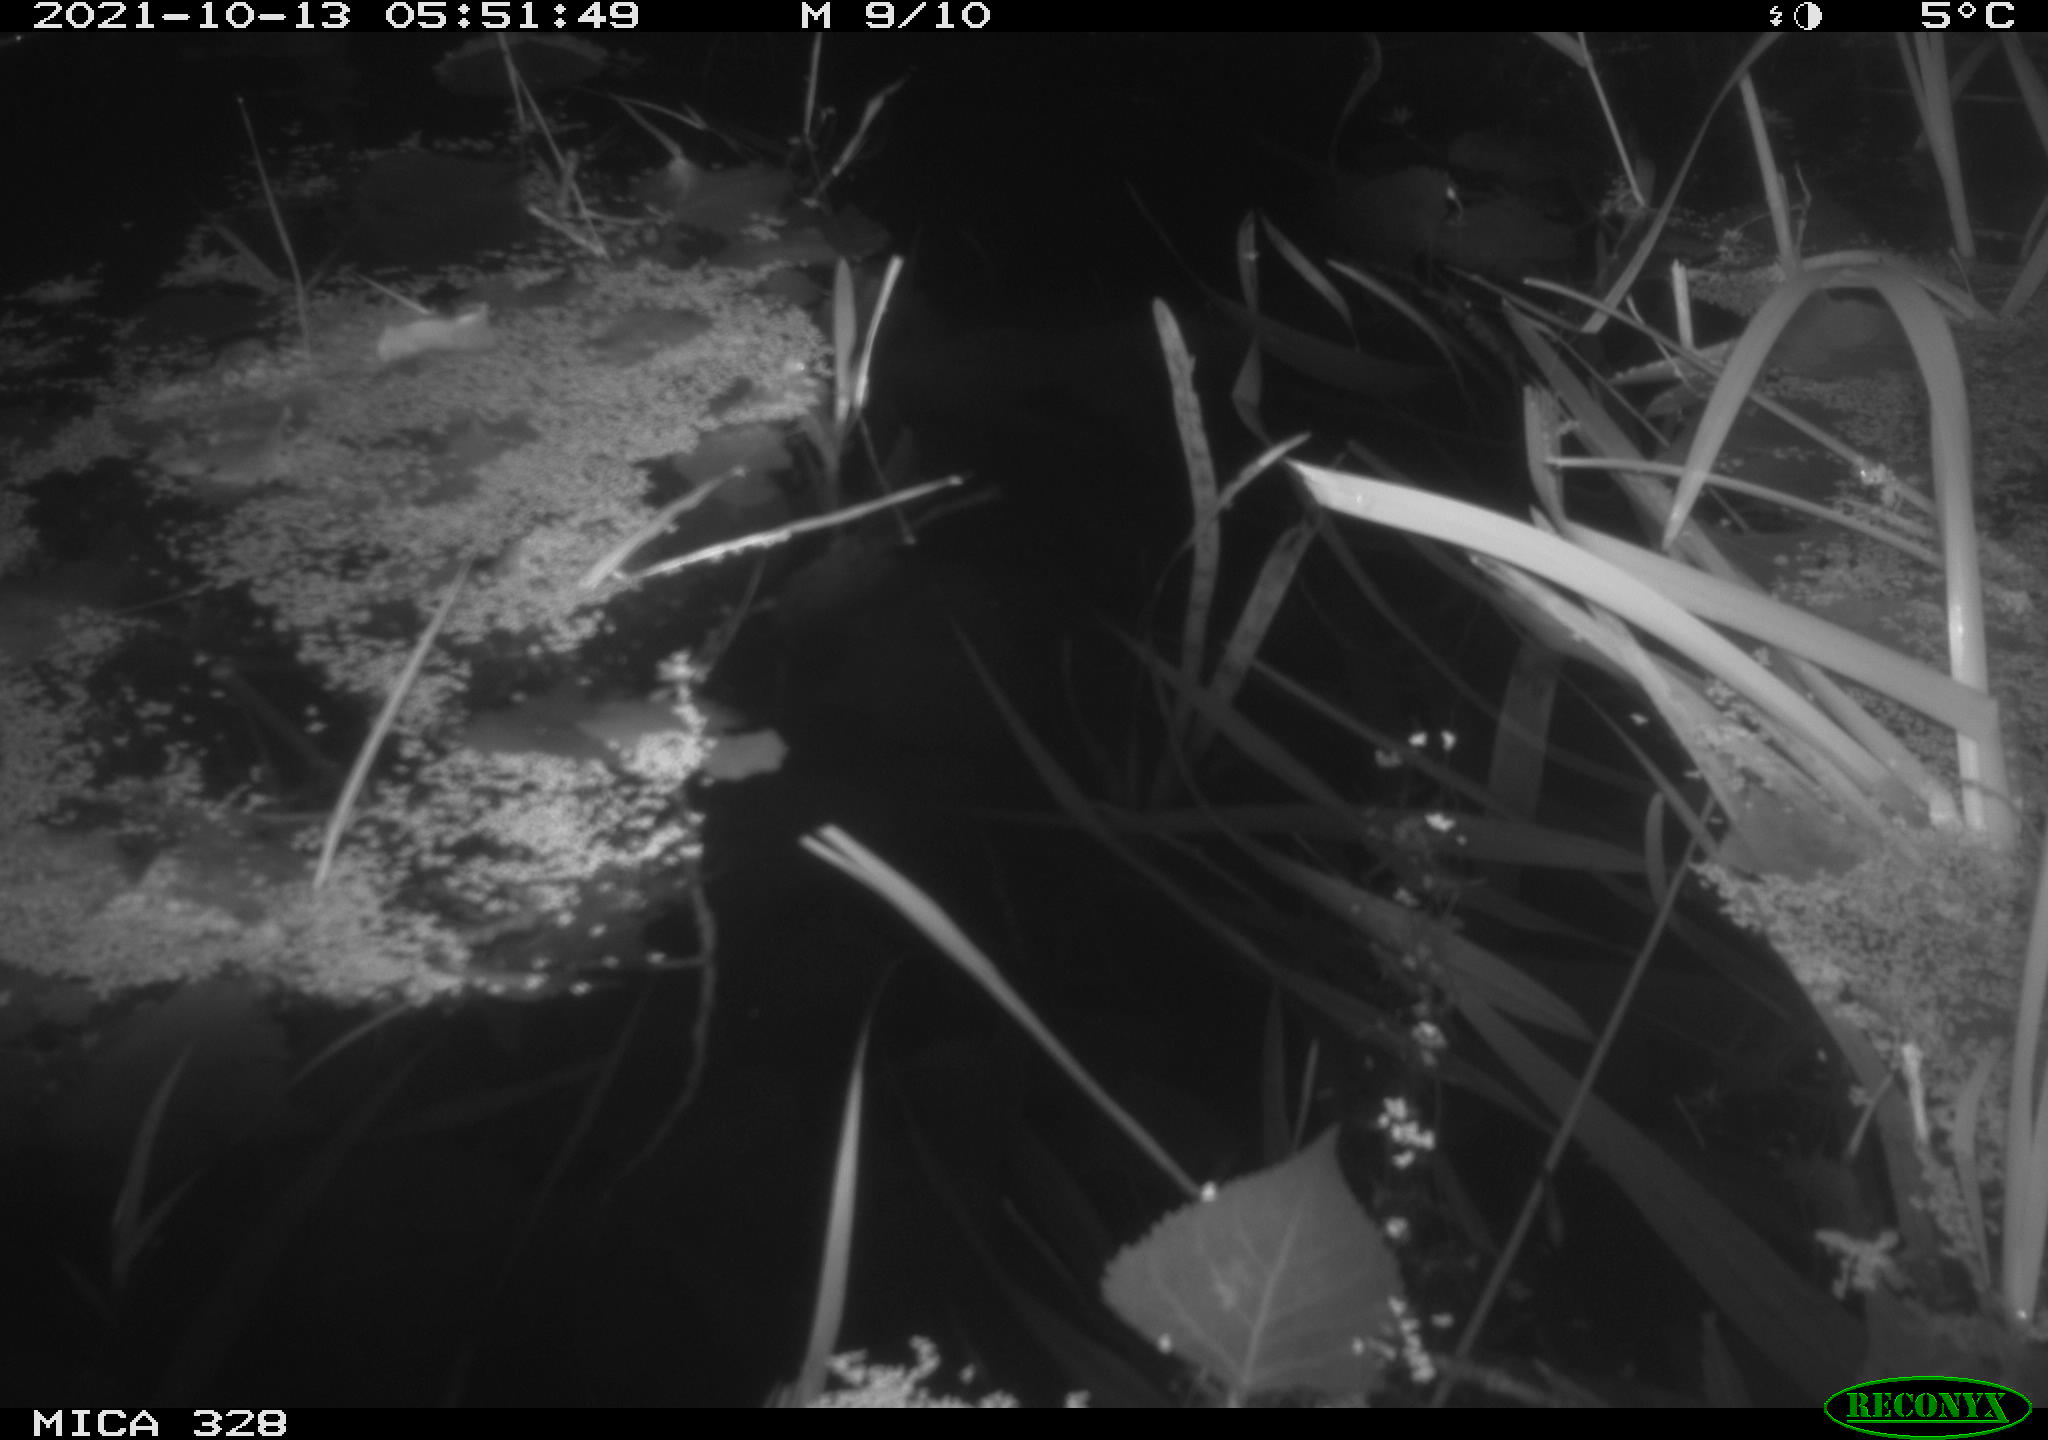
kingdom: Animalia
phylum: Chordata
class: Mammalia
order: Rodentia
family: Cricetidae
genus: Ondatra
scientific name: Ondatra zibethicus
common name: Muskrat
